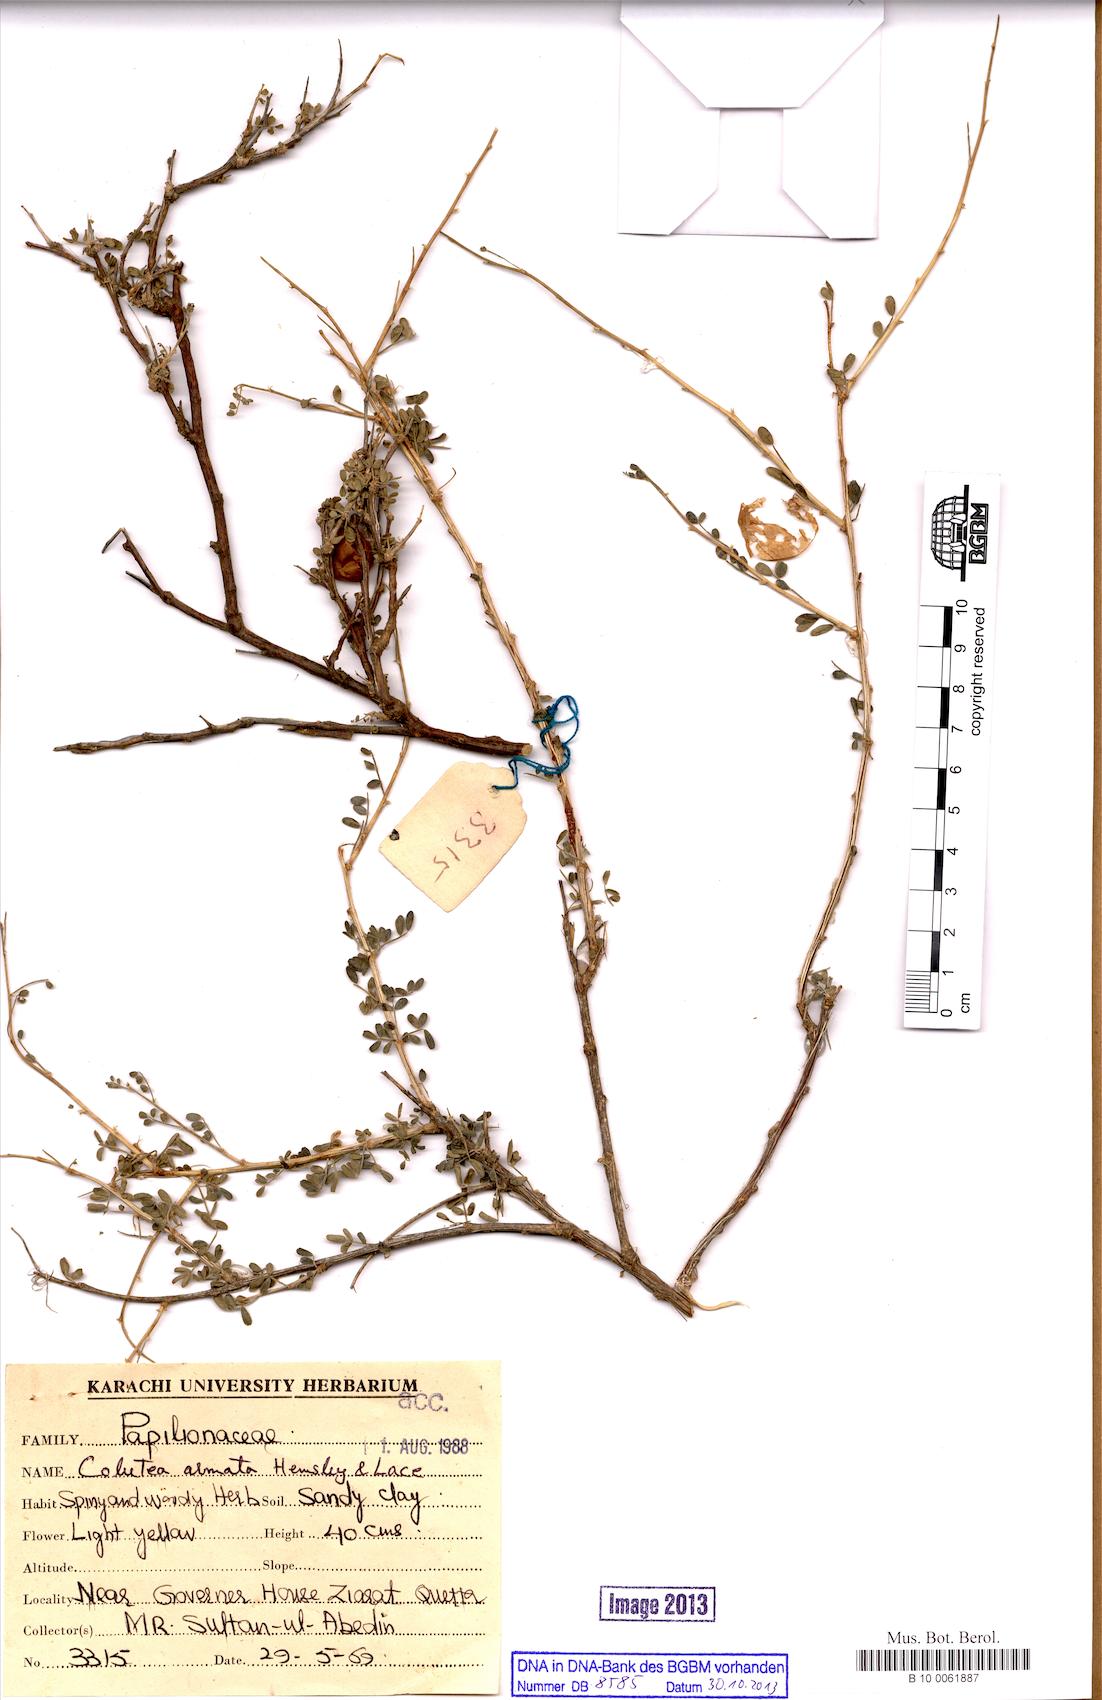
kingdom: Plantae
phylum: Tracheophyta
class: Magnoliopsida
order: Fabales
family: Fabaceae
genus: Colutea
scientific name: Colutea armata
